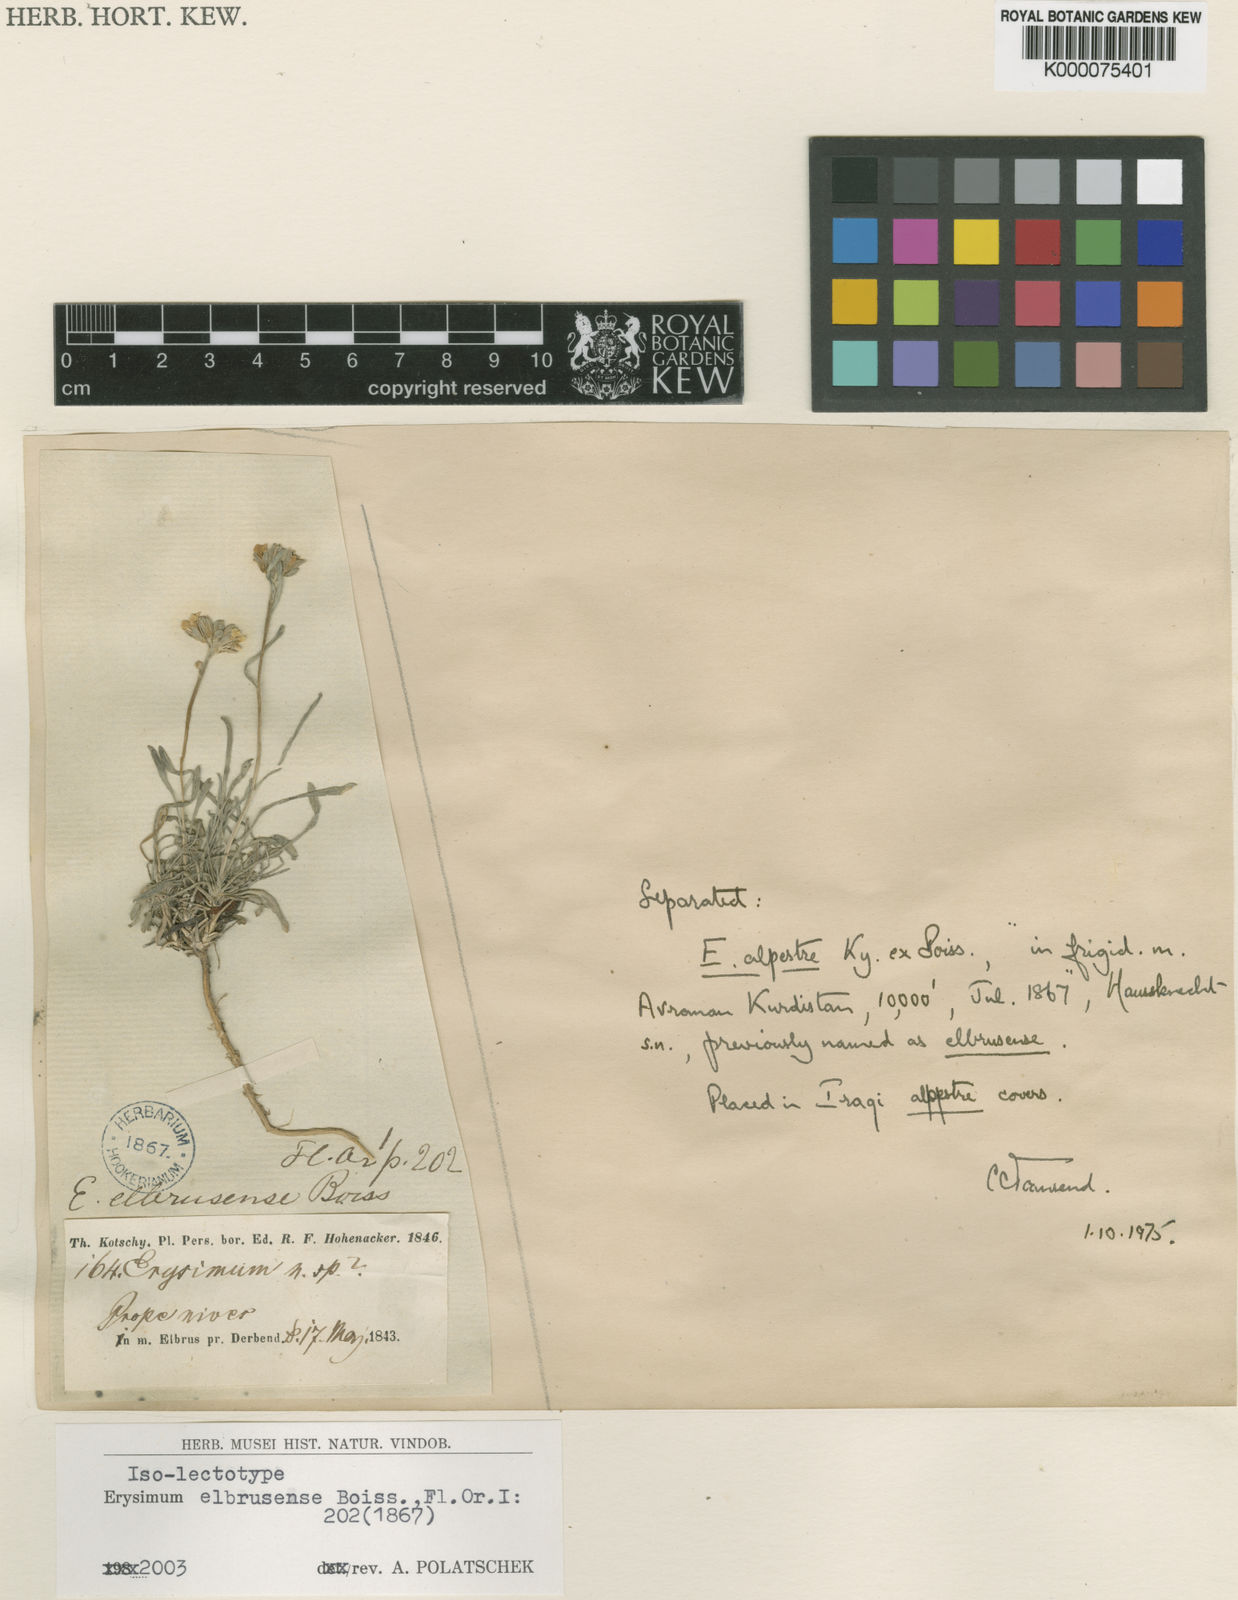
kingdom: Plantae
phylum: Tracheophyta
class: Magnoliopsida
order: Brassicales
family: Brassicaceae
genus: Erysimum
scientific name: Erysimum elbrusense
